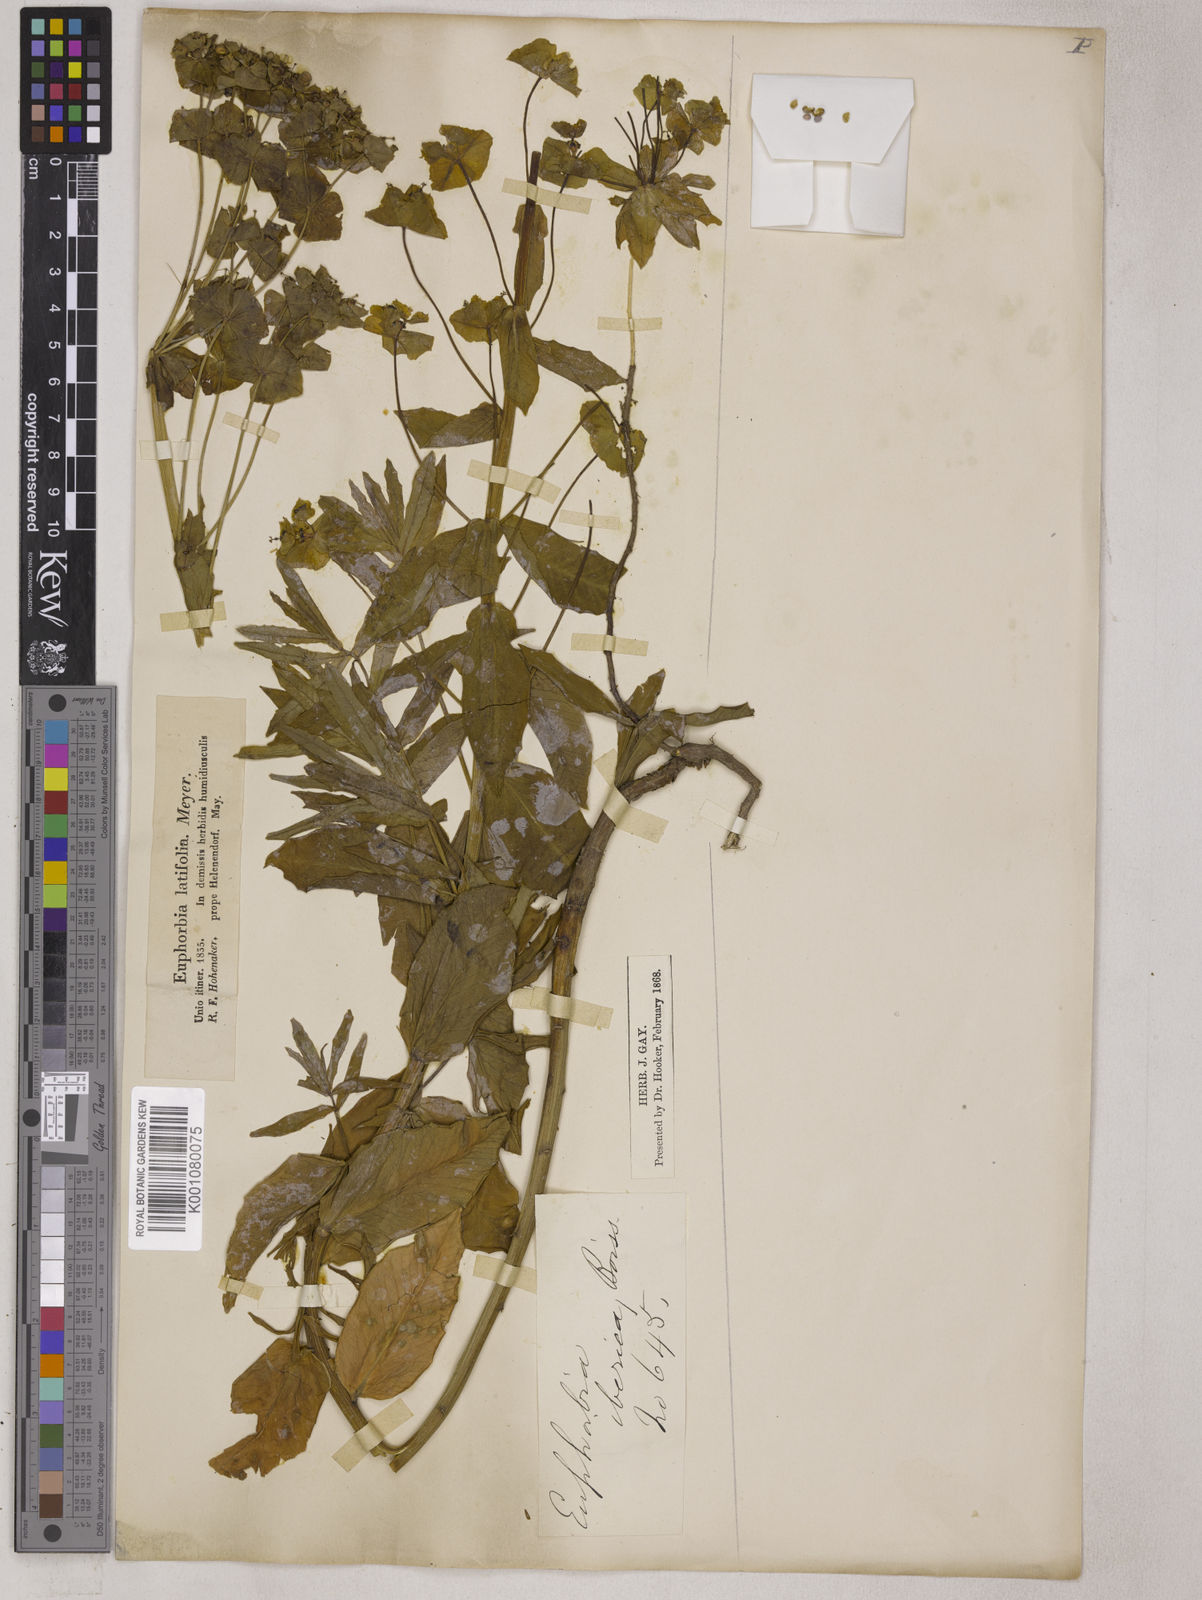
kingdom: Plantae
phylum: Tracheophyta
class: Magnoliopsida
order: Malpighiales
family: Euphorbiaceae
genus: Euphorbia
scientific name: Euphorbia iberica
